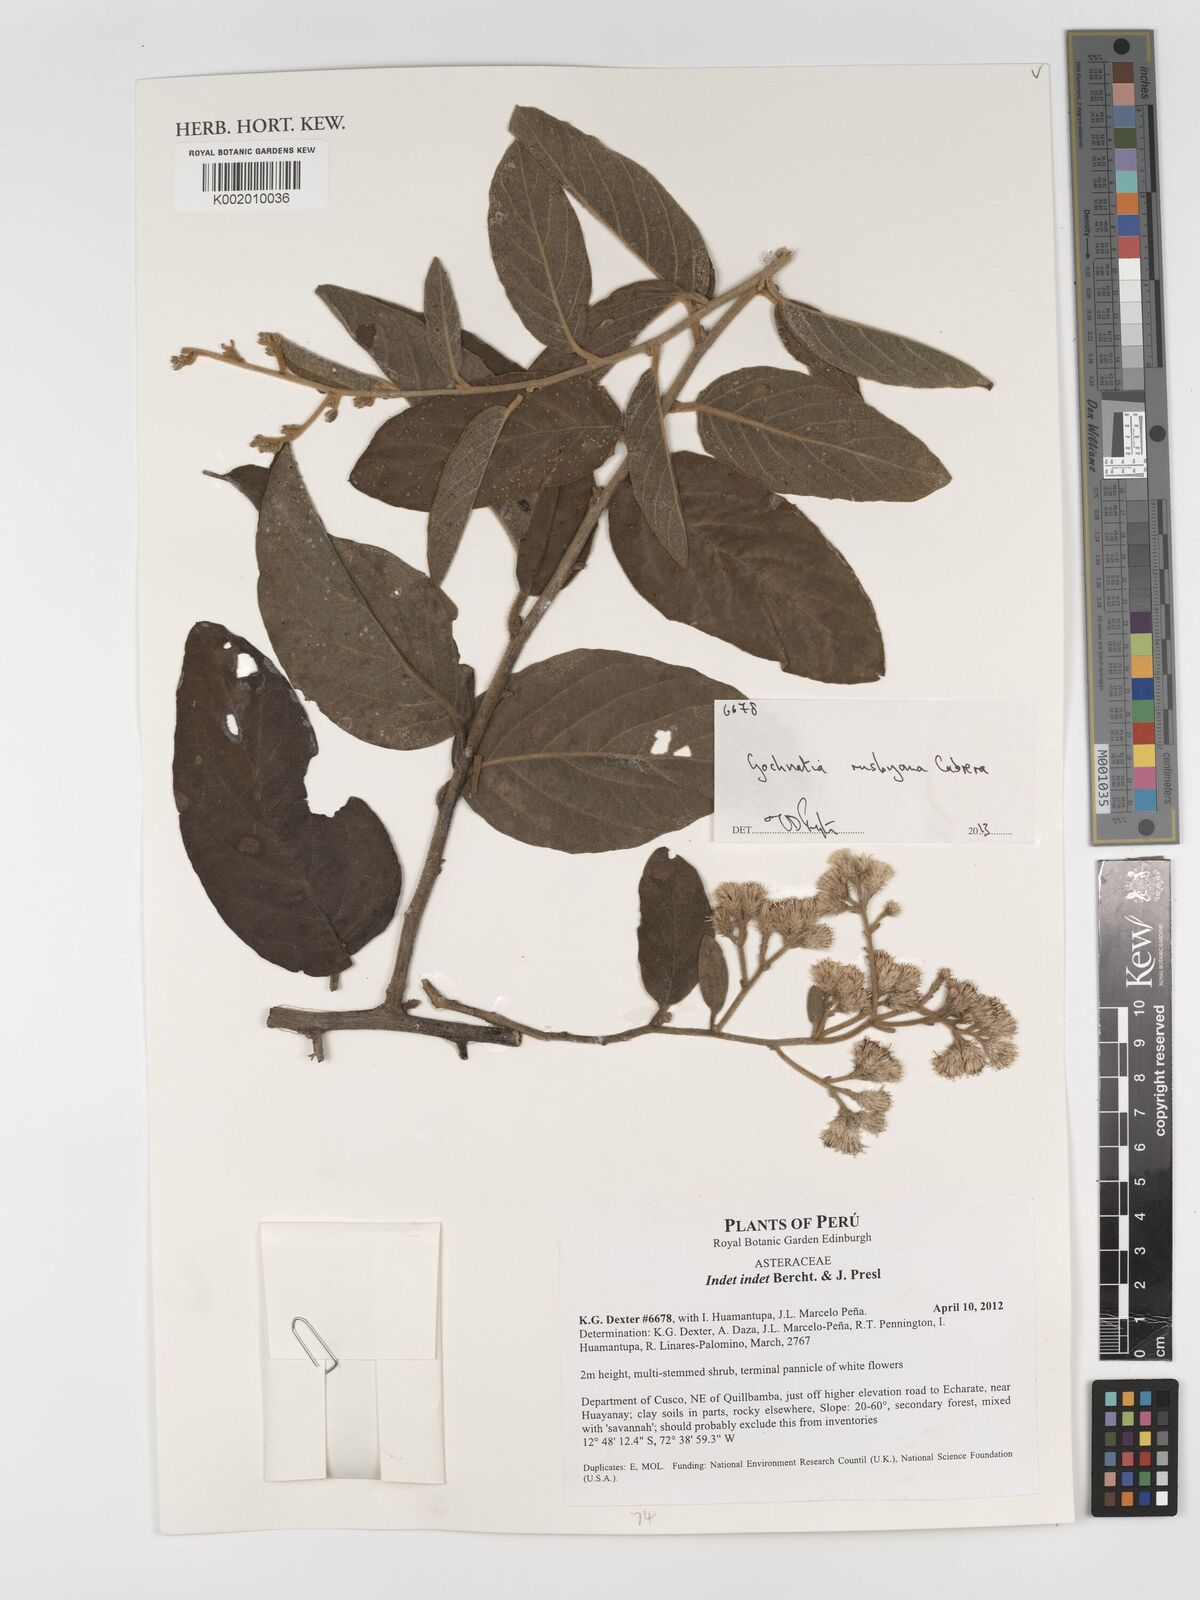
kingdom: Plantae
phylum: Tracheophyta
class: Magnoliopsida
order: Asterales
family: Asteraceae
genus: Moquiniastrum
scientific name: Moquiniastrum bolivianum
